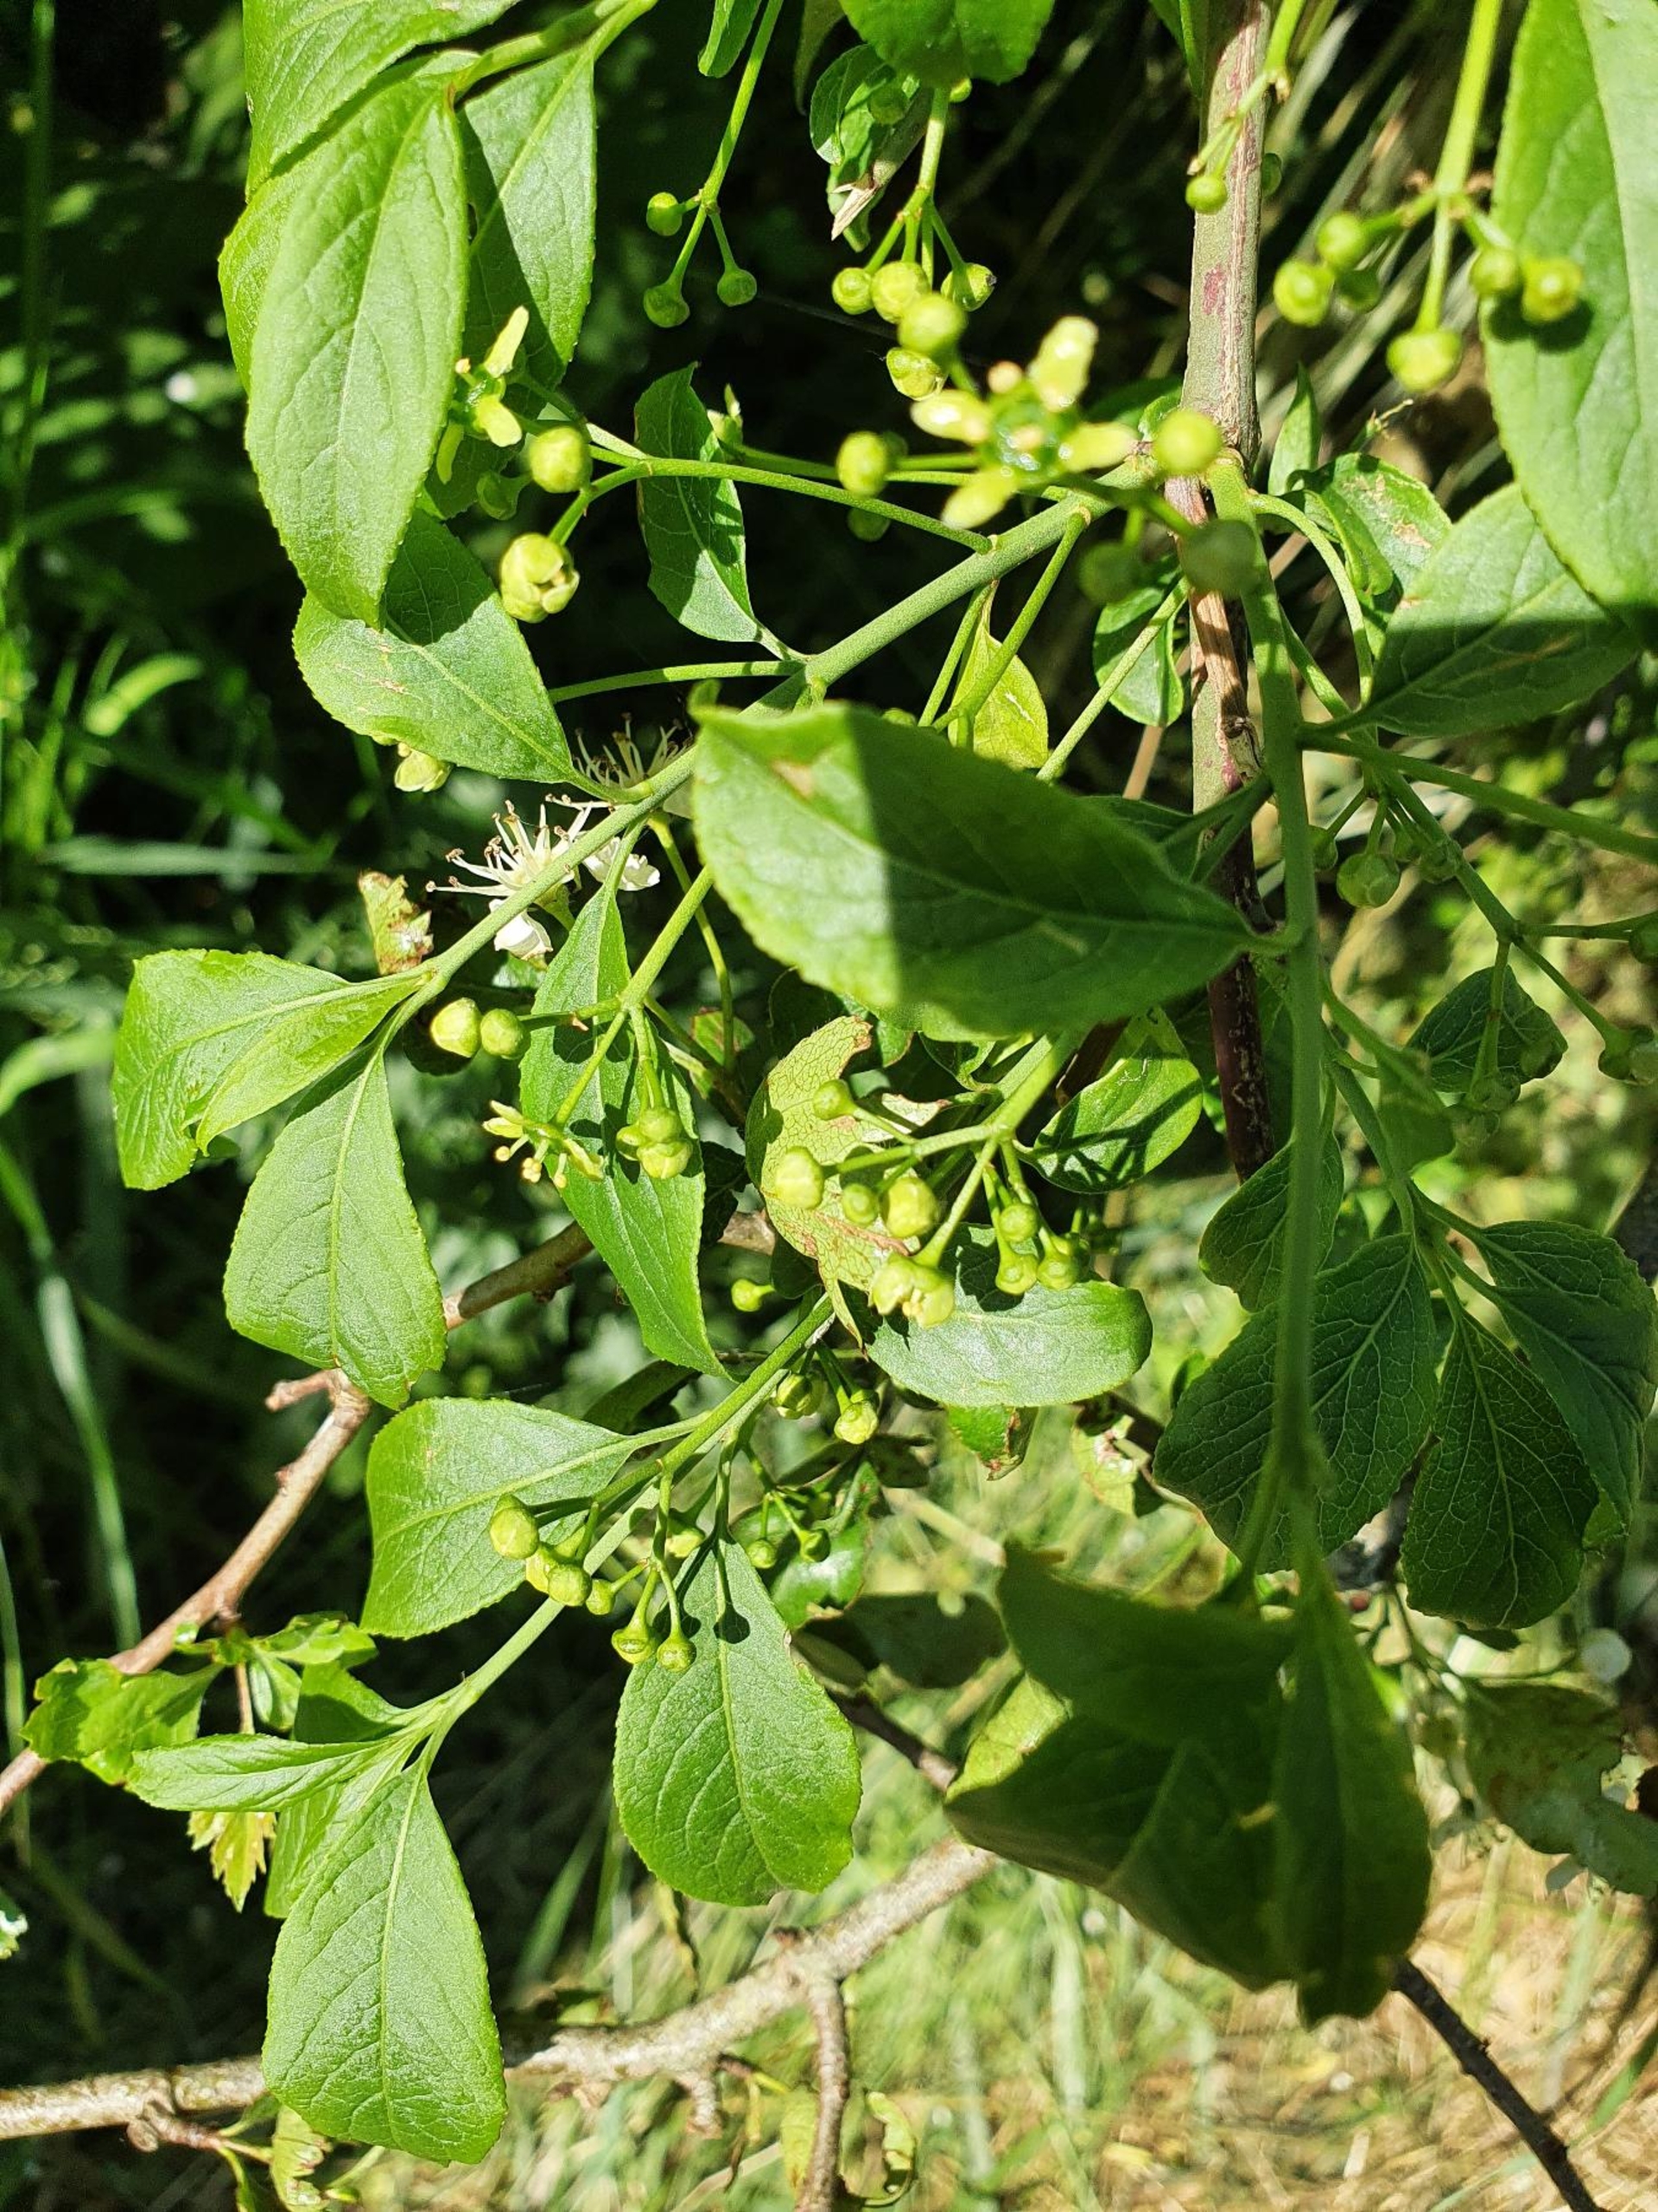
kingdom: Plantae
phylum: Tracheophyta
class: Magnoliopsida
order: Celastrales
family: Celastraceae
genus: Euonymus
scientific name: Euonymus europaeus
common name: Benved
